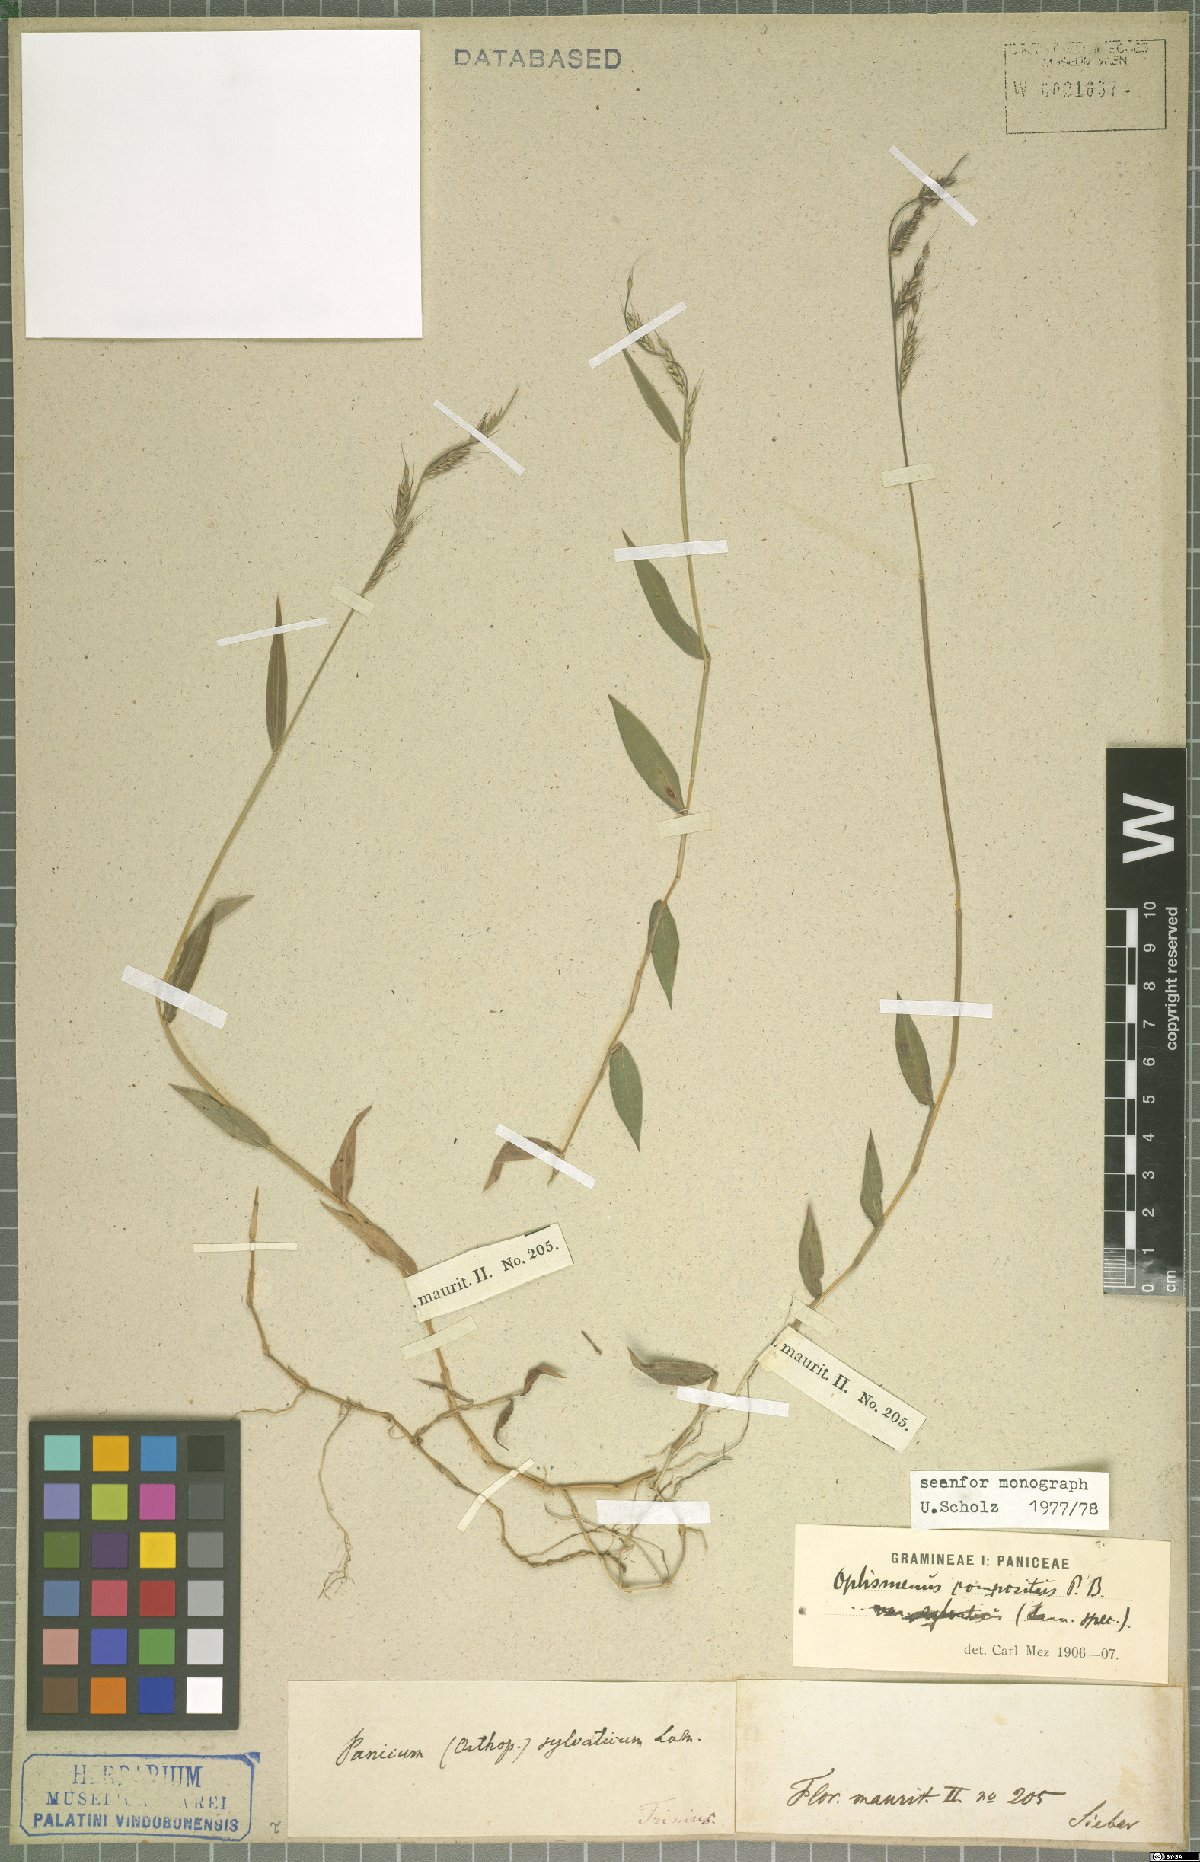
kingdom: Plantae
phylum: Tracheophyta
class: Liliopsida
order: Poales
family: Poaceae
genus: Oplismenus
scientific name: Oplismenus compositus
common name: Running mountain grass
